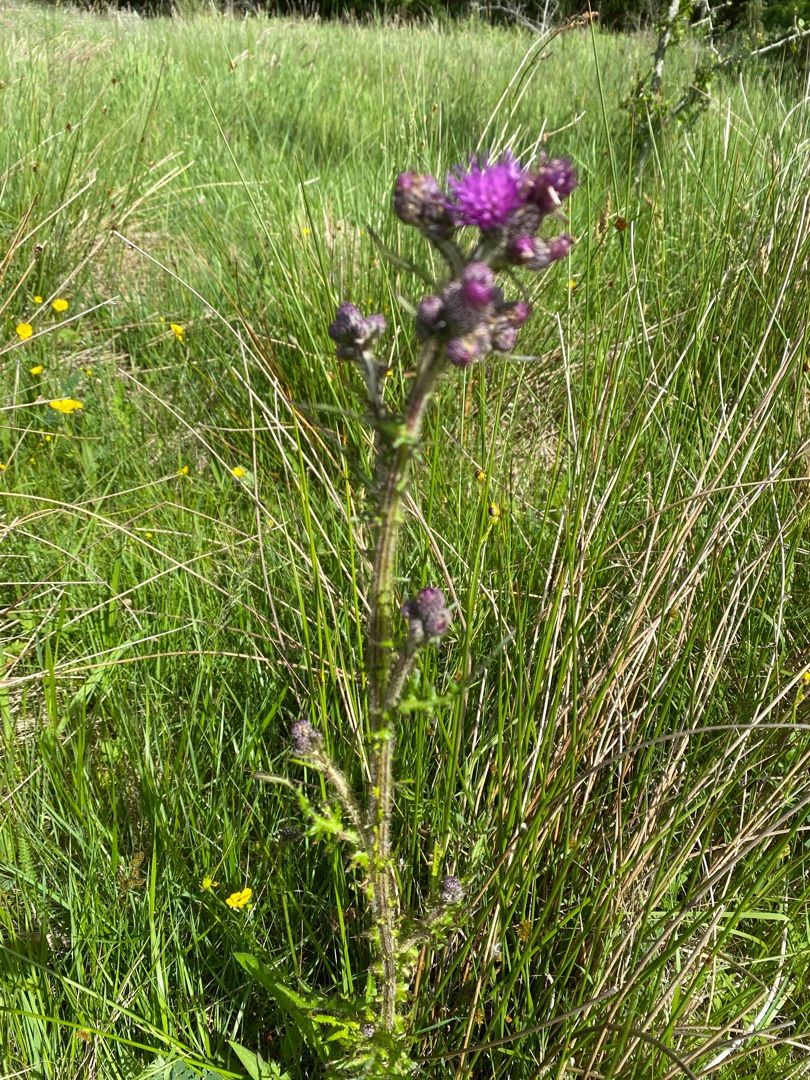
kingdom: Plantae
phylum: Tracheophyta
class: Magnoliopsida
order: Asterales
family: Asteraceae
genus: Cirsium
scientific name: Cirsium palustre
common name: Kær-tidsel
